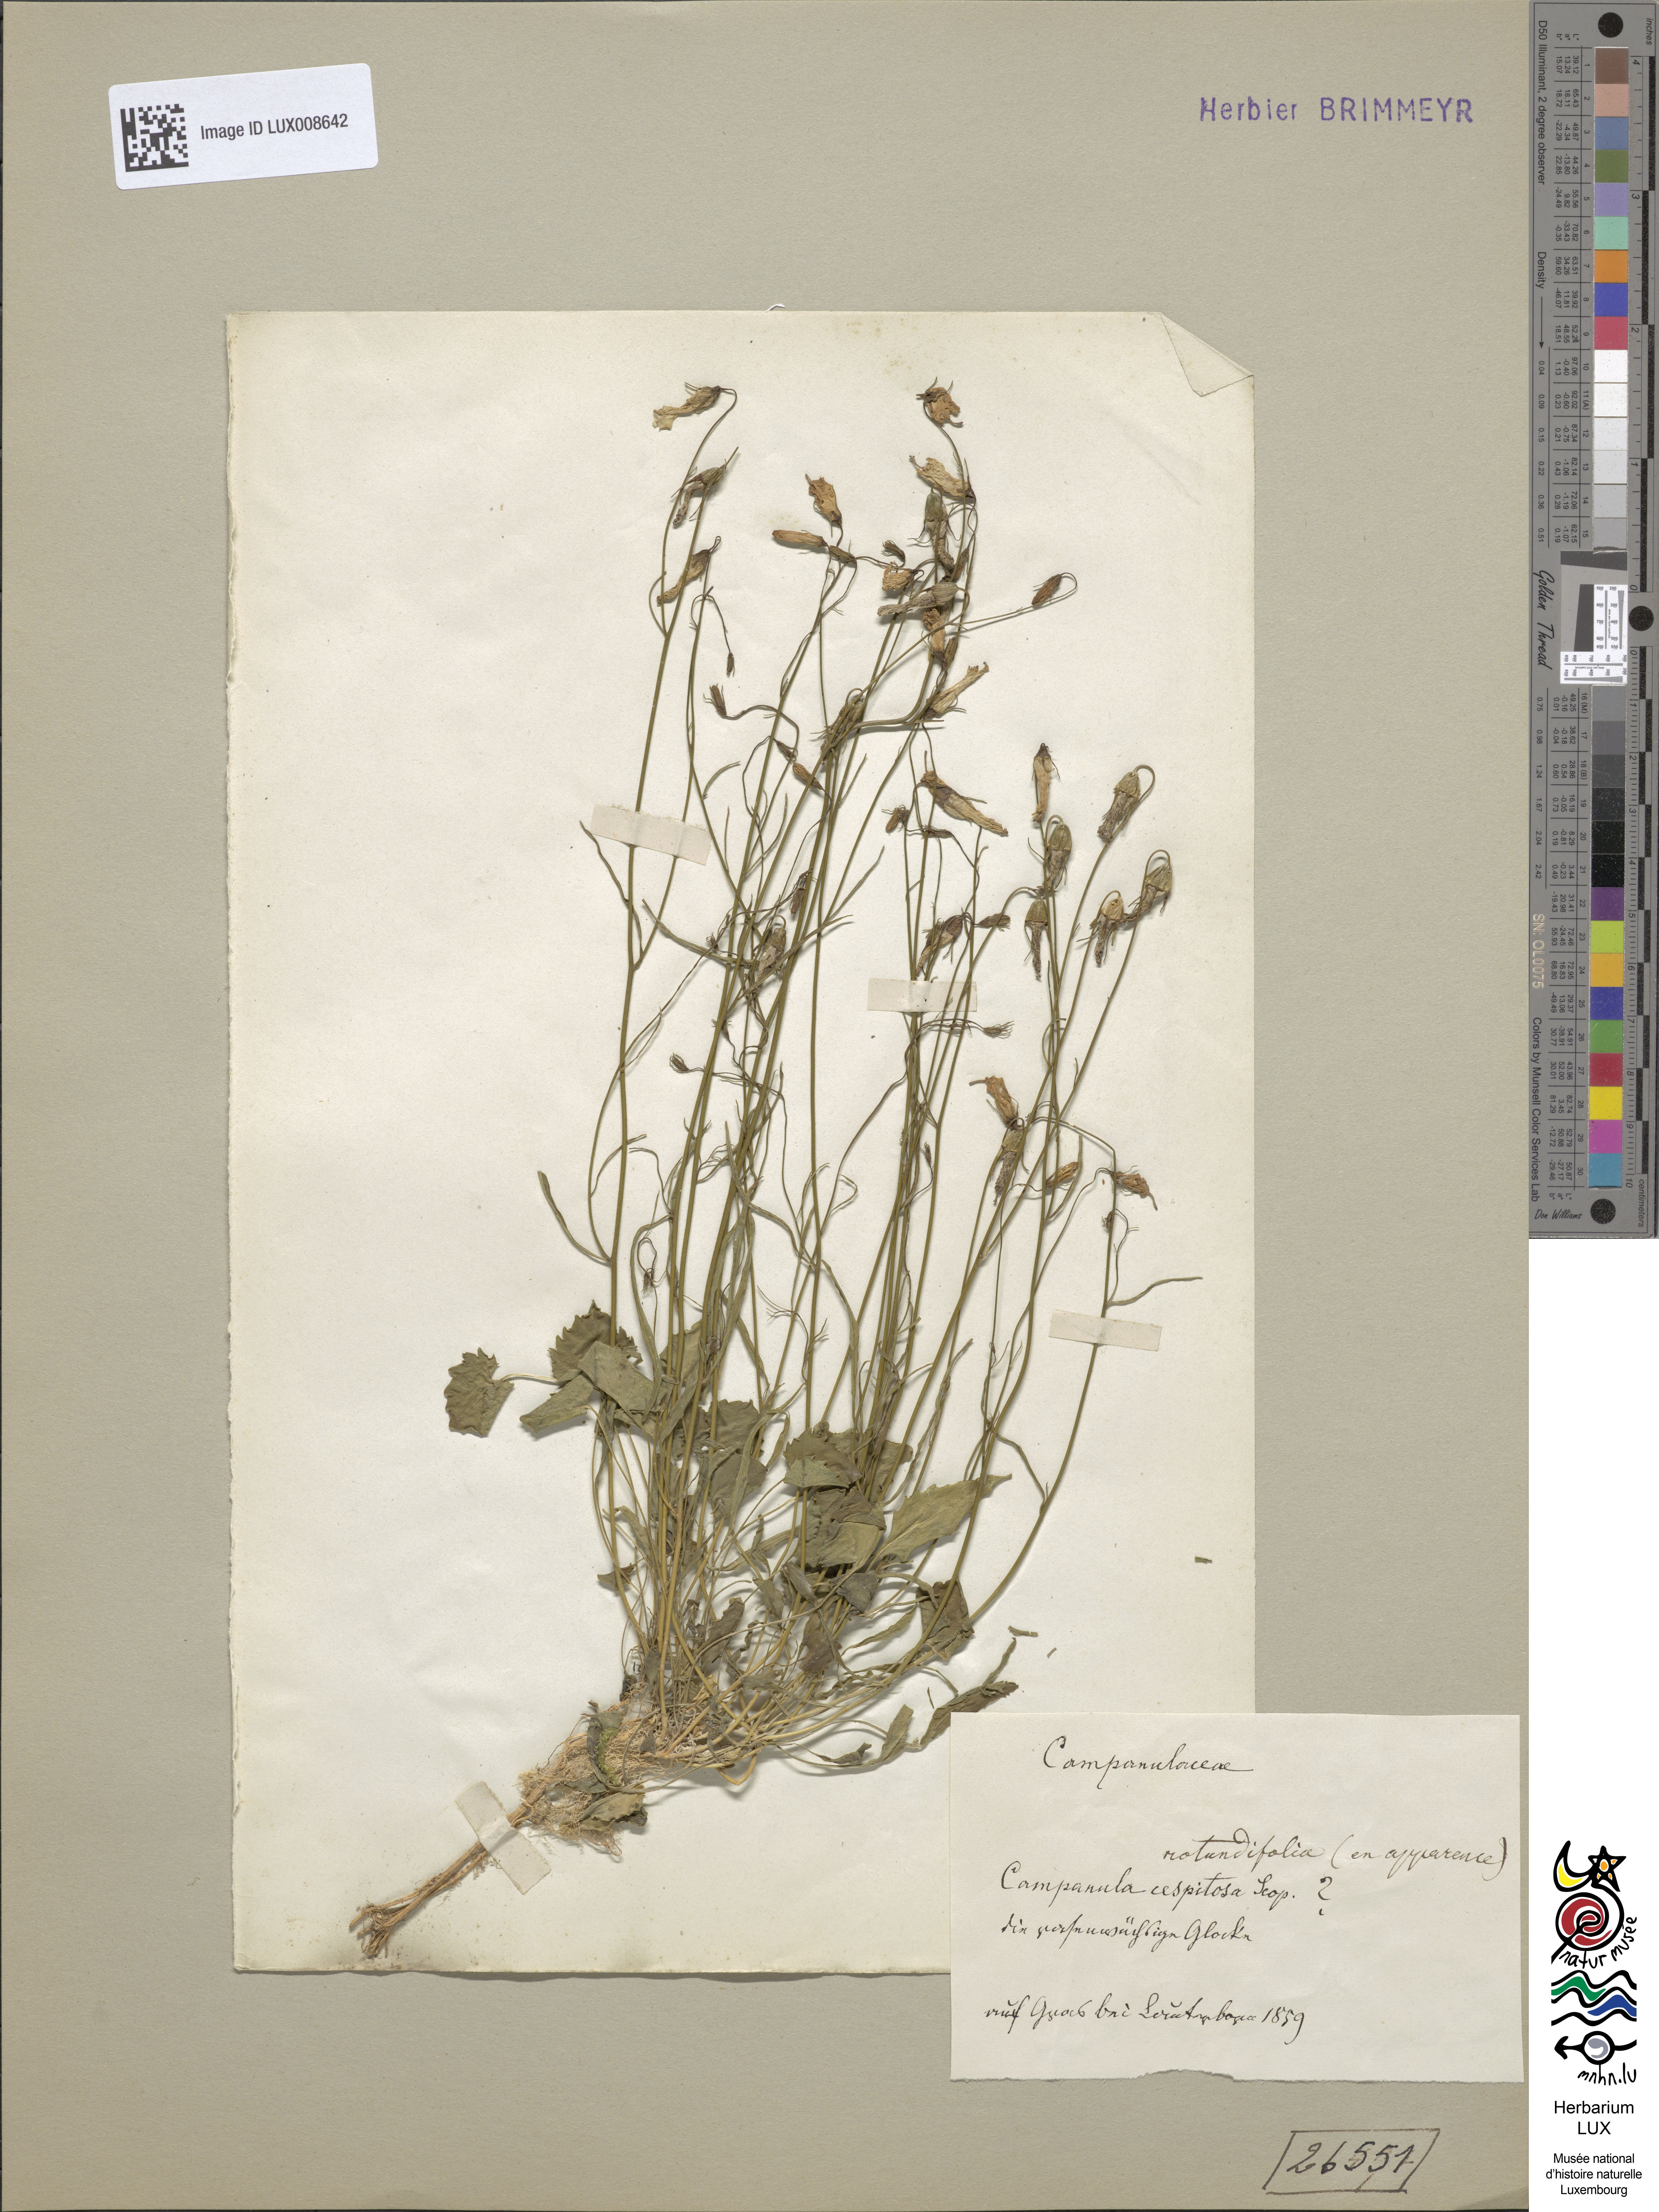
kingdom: Plantae
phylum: Tracheophyta
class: Magnoliopsida
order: Asterales
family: Campanulaceae
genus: Campanula
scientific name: Campanula cespitosa
